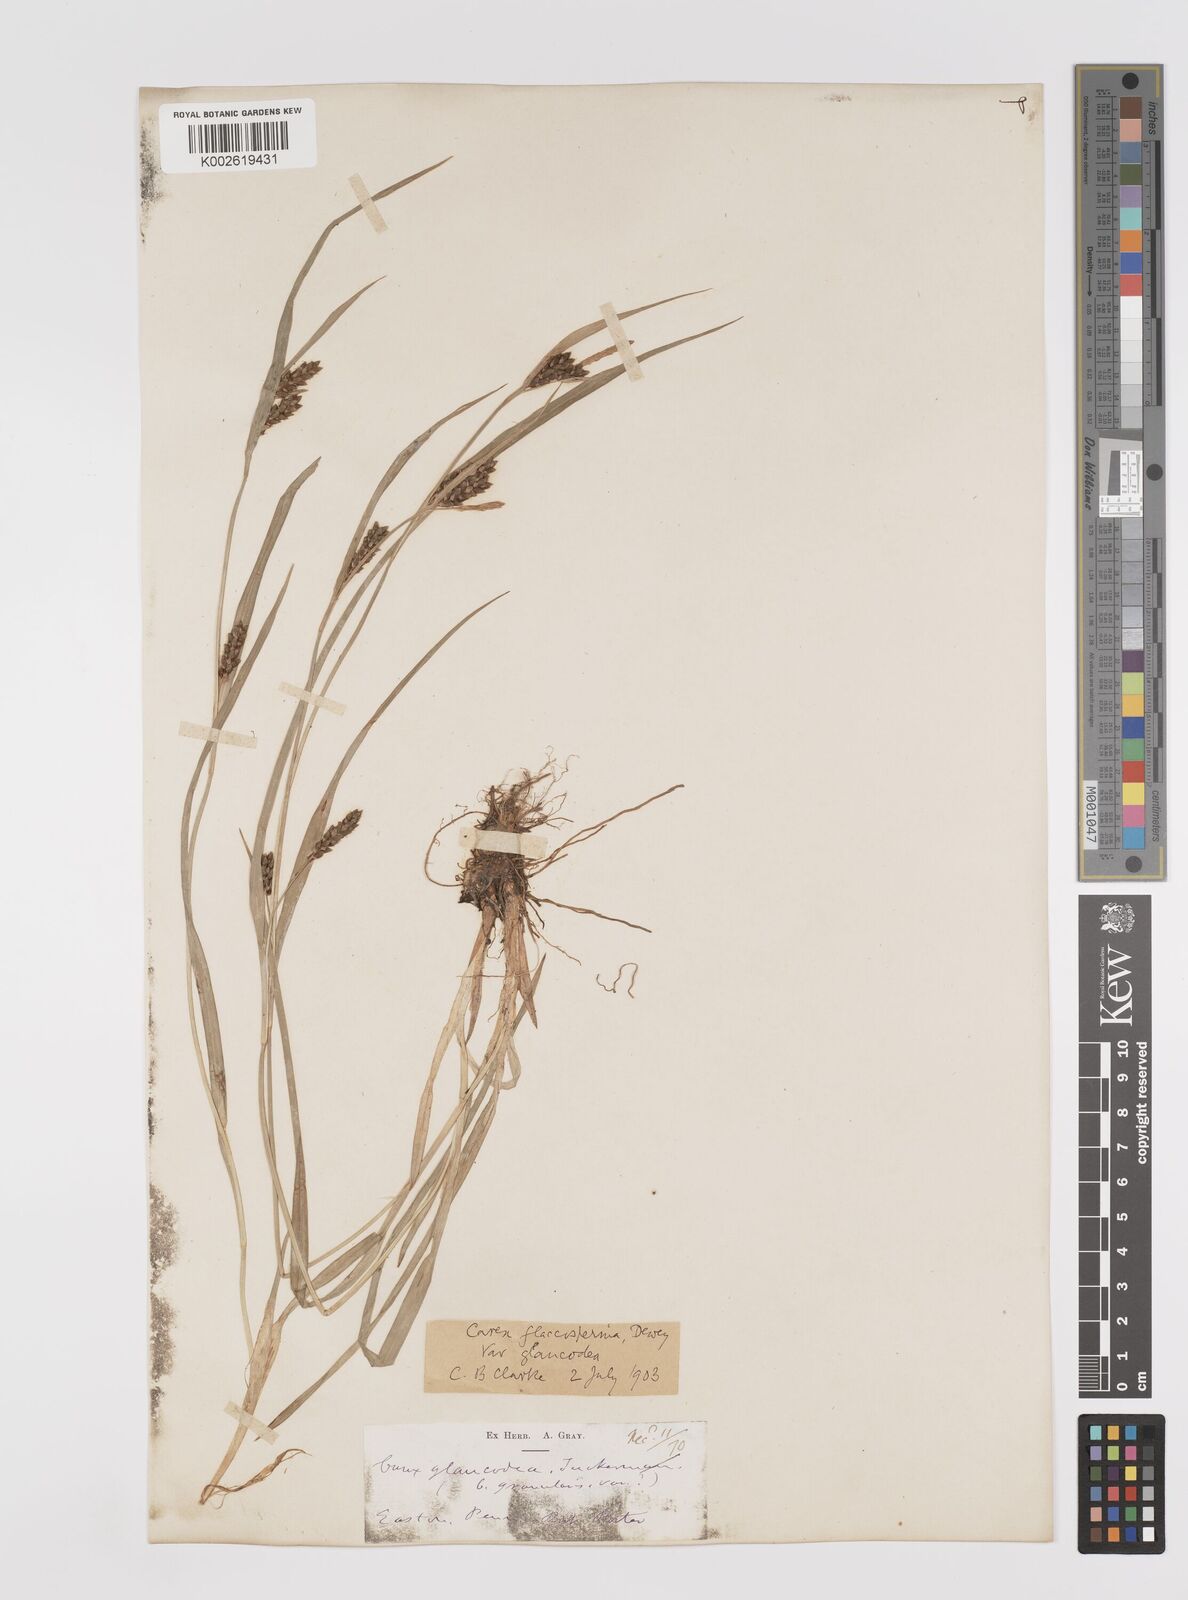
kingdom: Plantae
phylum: Tracheophyta
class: Liliopsida
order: Poales
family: Cyperaceae
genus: Carex
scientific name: Carex glaucodea
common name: Blue sedge
